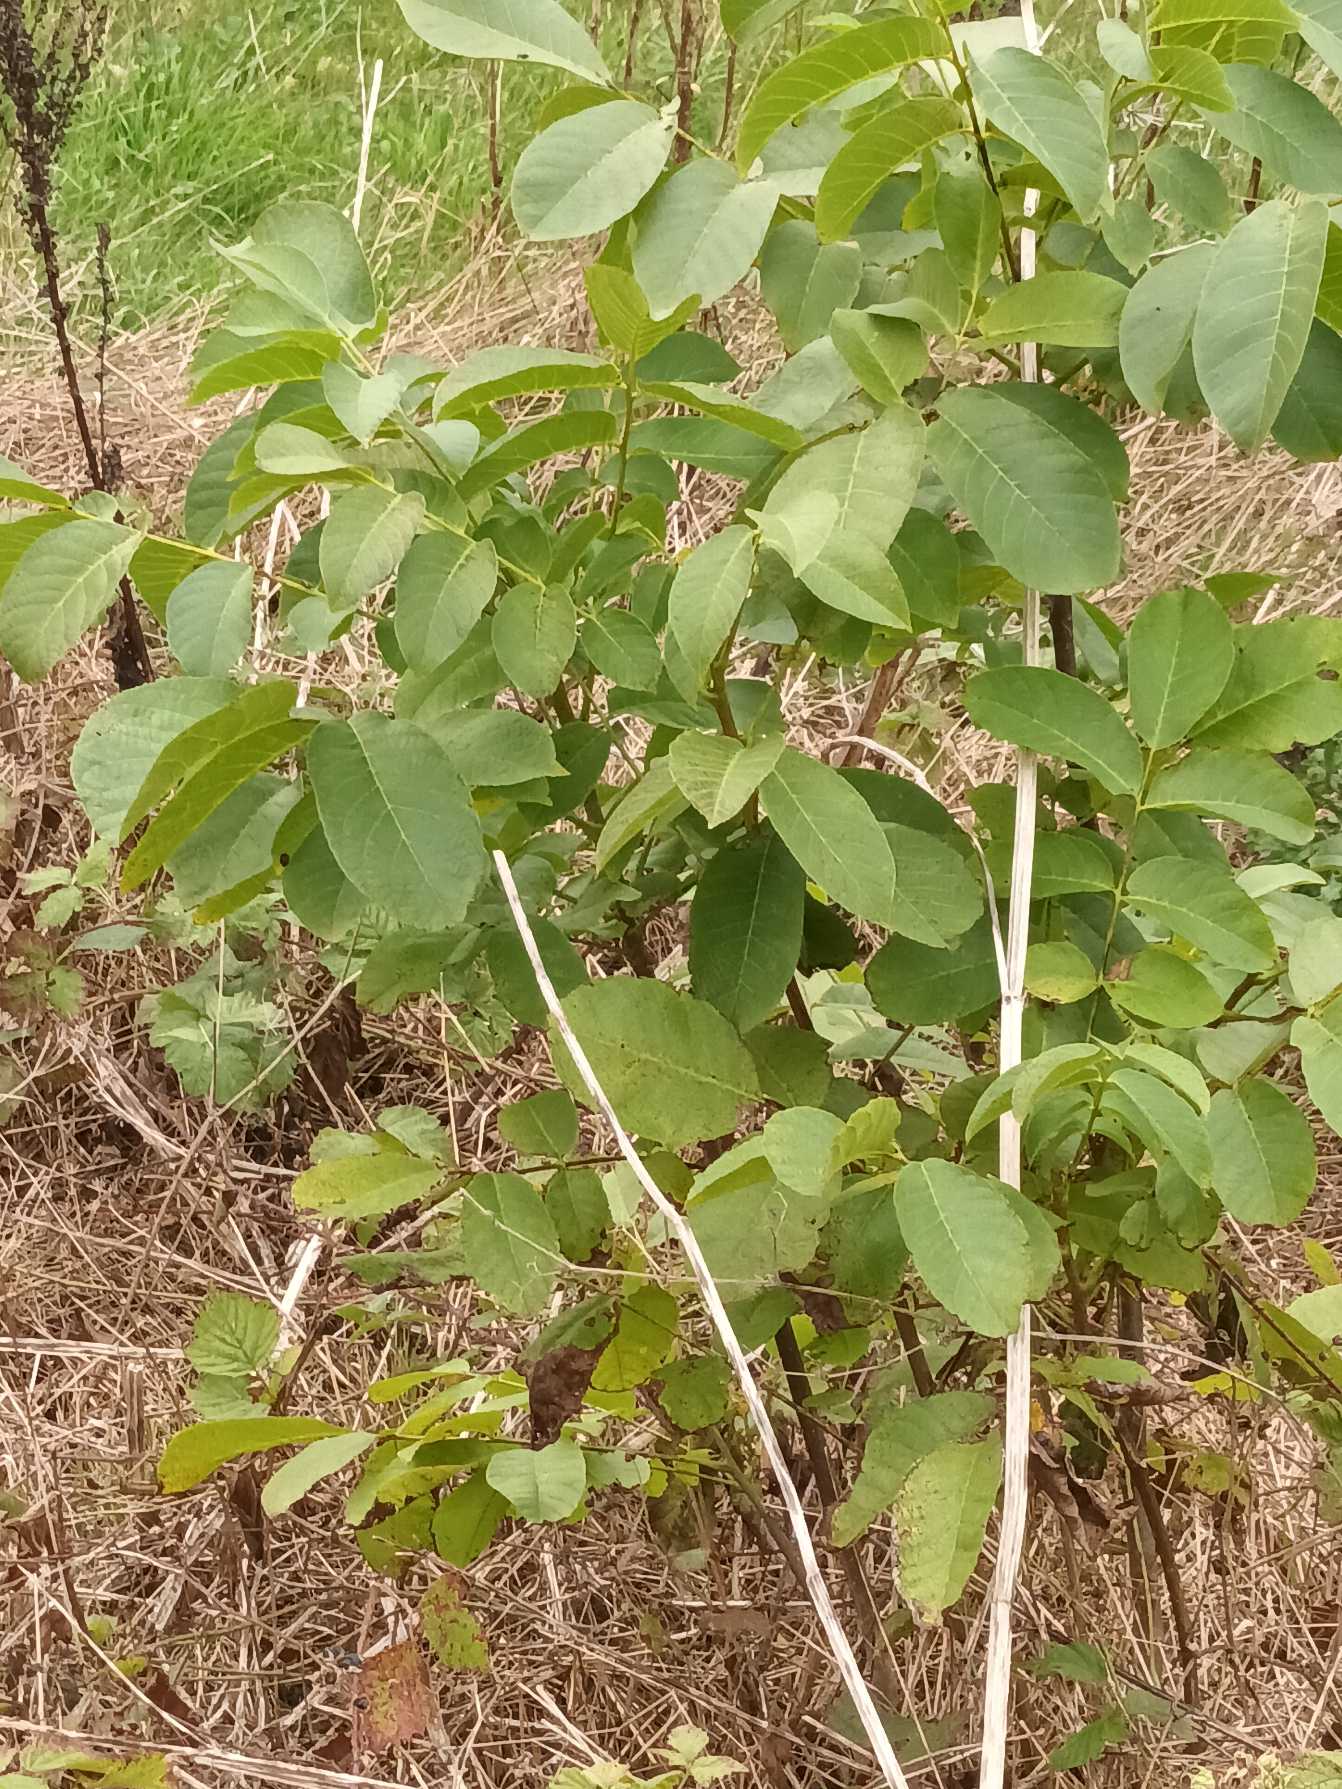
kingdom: Plantae
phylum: Tracheophyta
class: Magnoliopsida
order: Fagales
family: Juglandaceae
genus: Juglans
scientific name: Juglans regia
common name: Almindelig valnød
